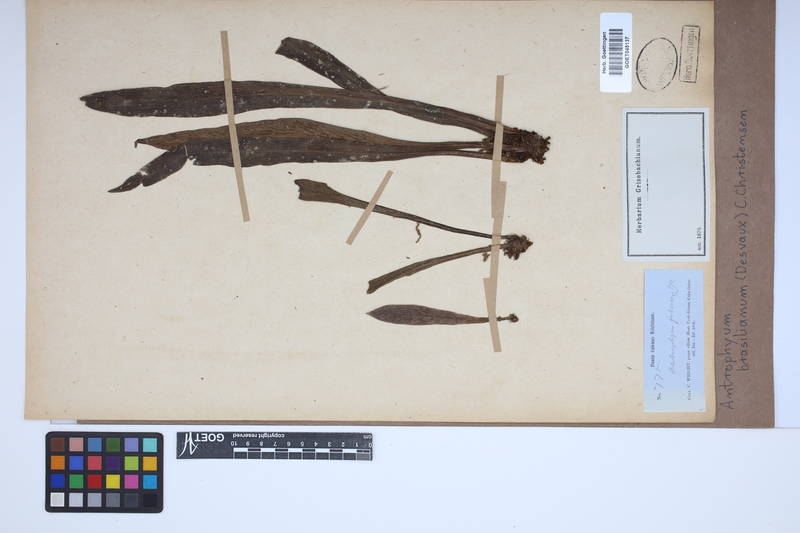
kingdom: Plantae
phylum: Tracheophyta
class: Polypodiopsida
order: Polypodiales
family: Pteridaceae
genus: Polytaenium
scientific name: Polytaenium cajenense
